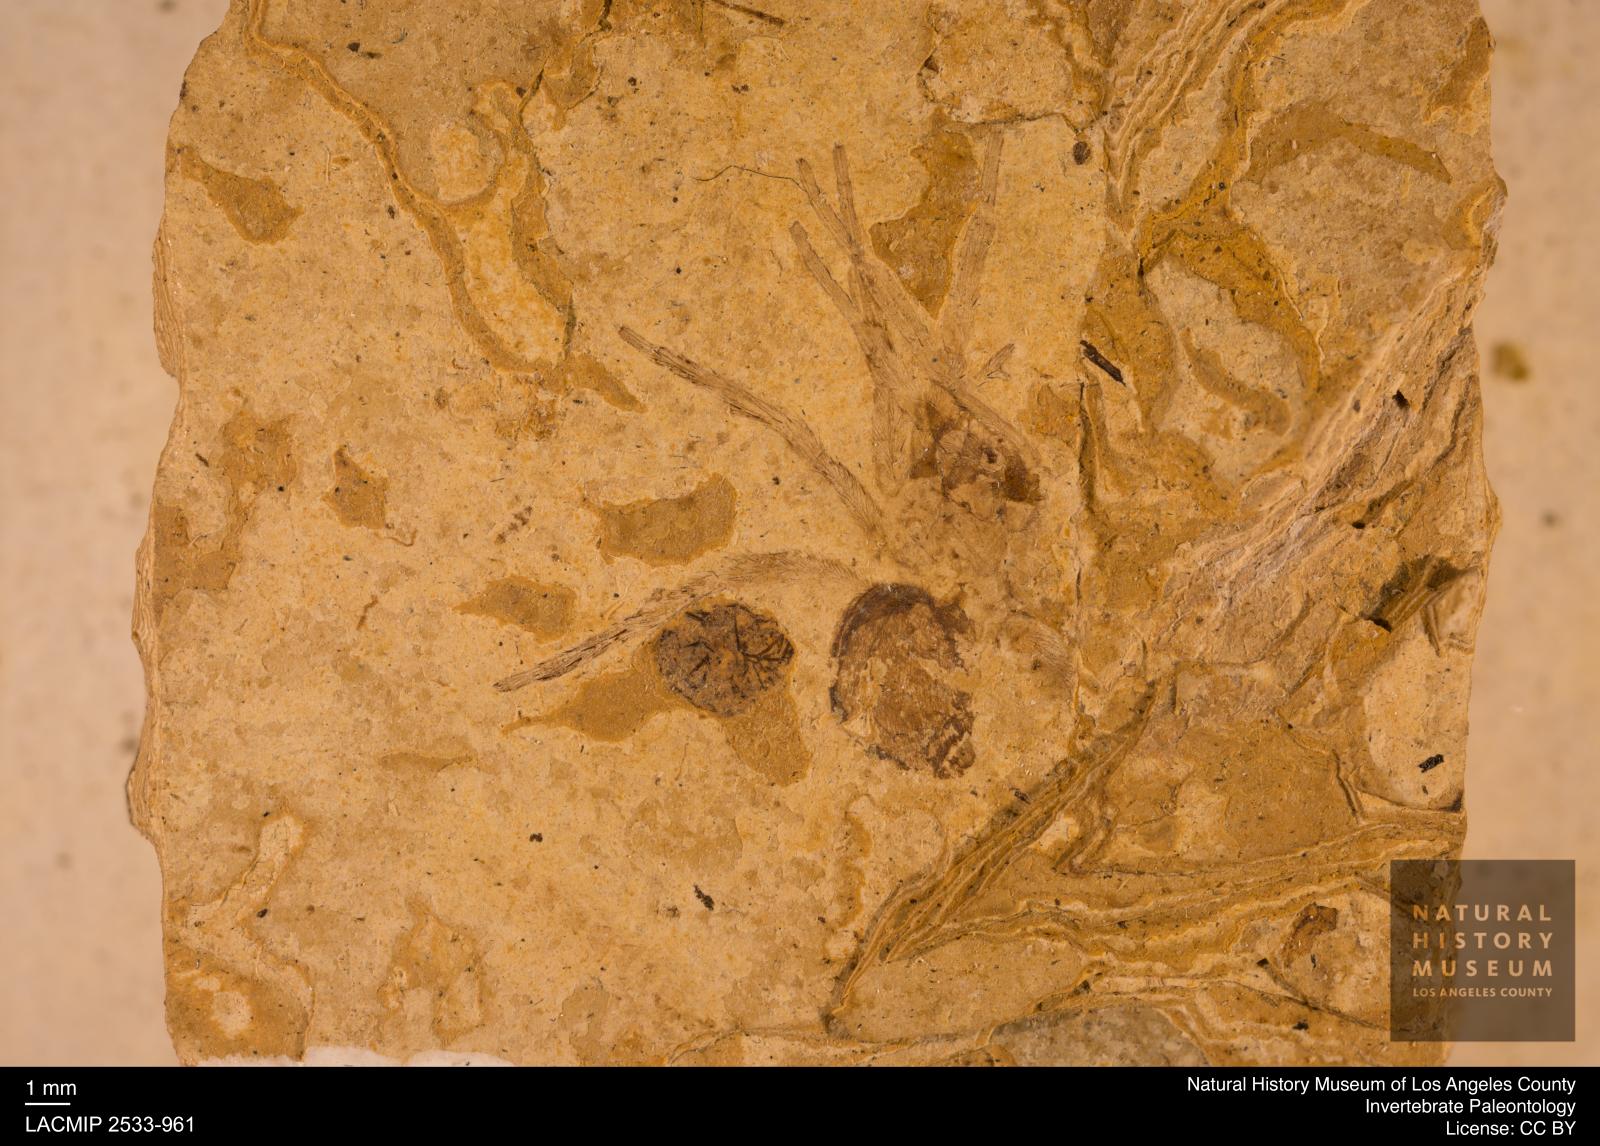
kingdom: Animalia
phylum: Arthropoda
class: Arachnida
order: Araneae
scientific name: Araneae
